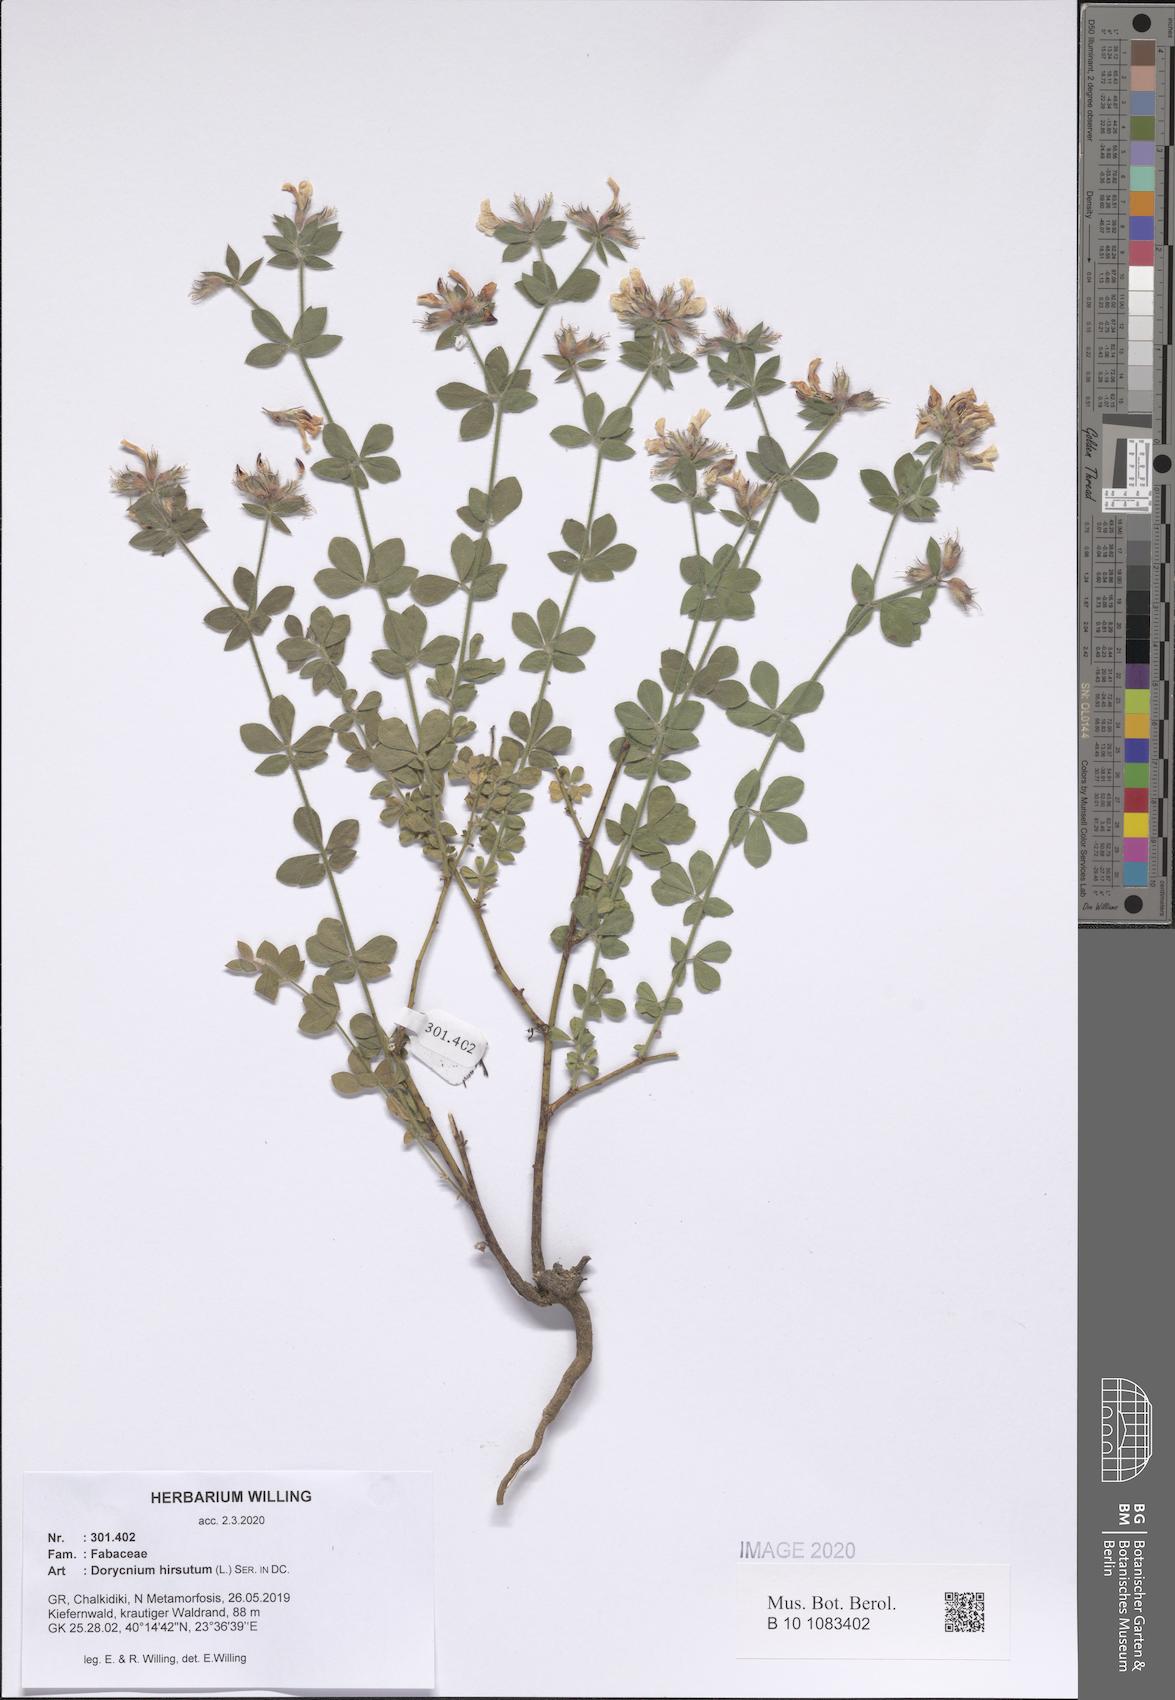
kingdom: Plantae
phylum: Tracheophyta
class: Magnoliopsida
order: Fabales
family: Fabaceae
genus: Lotus
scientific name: Lotus hirsutus
